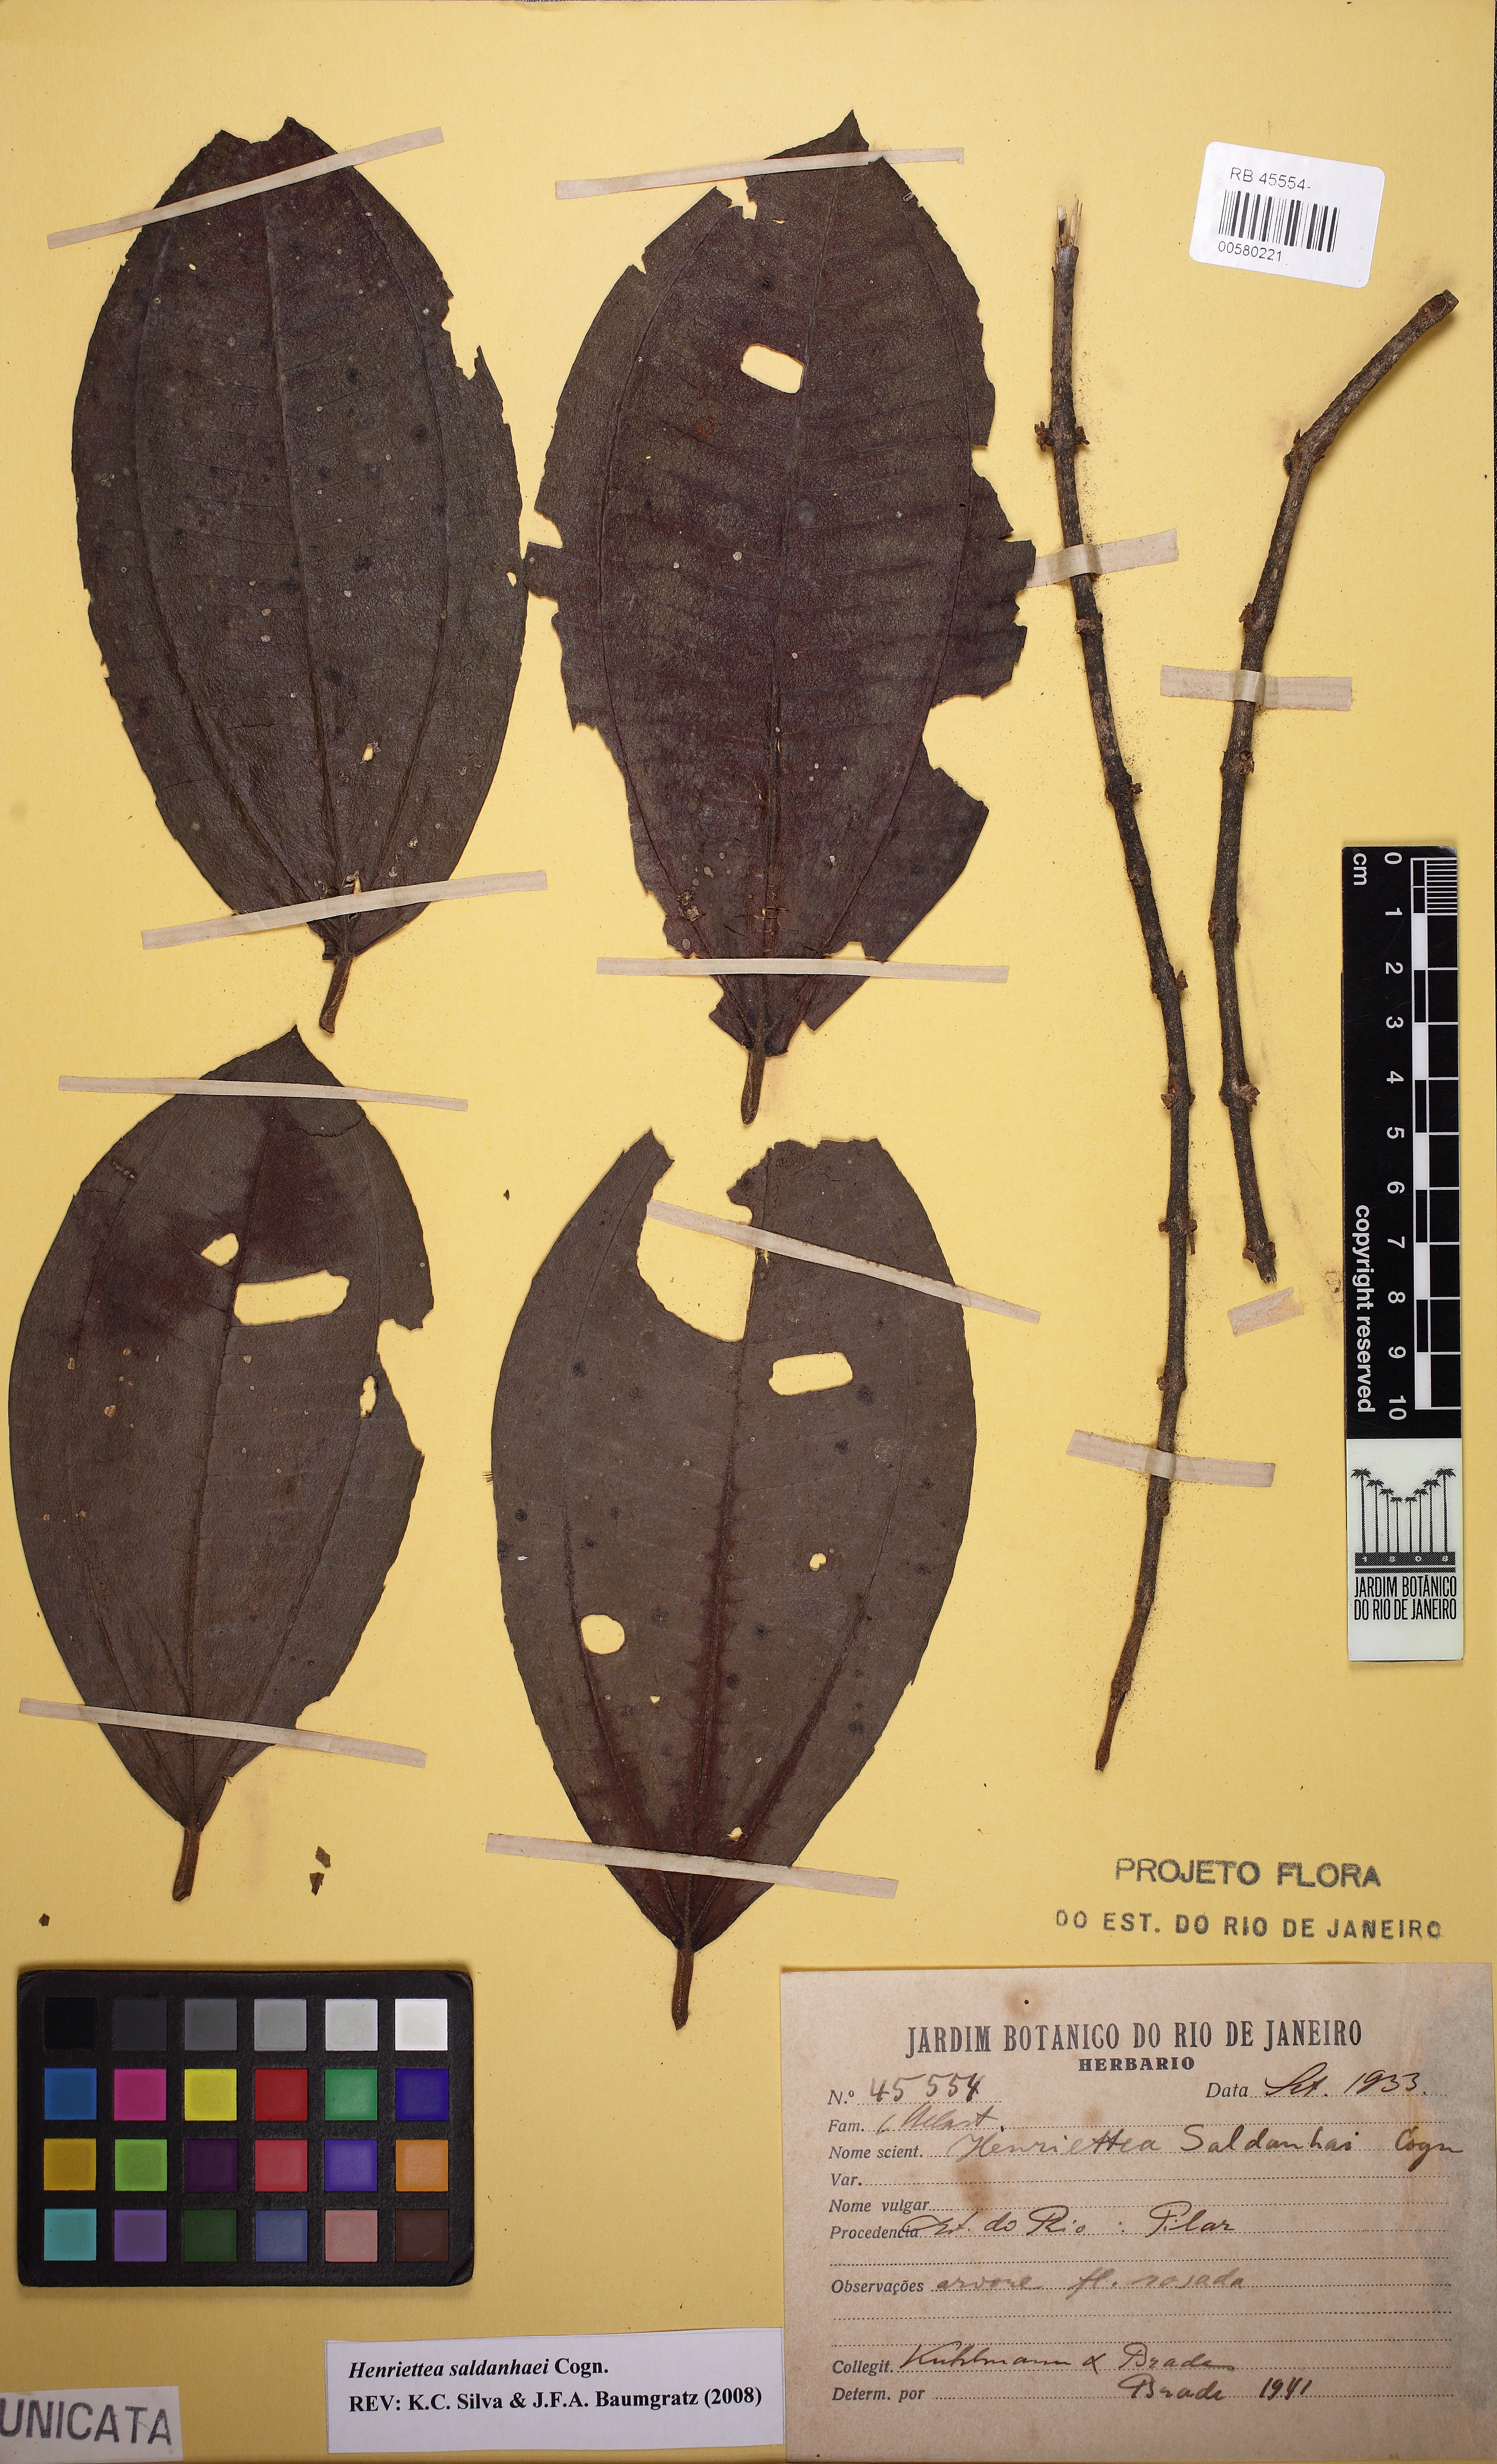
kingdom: Plantae
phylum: Tracheophyta
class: Magnoliopsida
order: Myrtales
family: Melastomataceae
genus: Henriettea
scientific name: Henriettea saldanhaei
